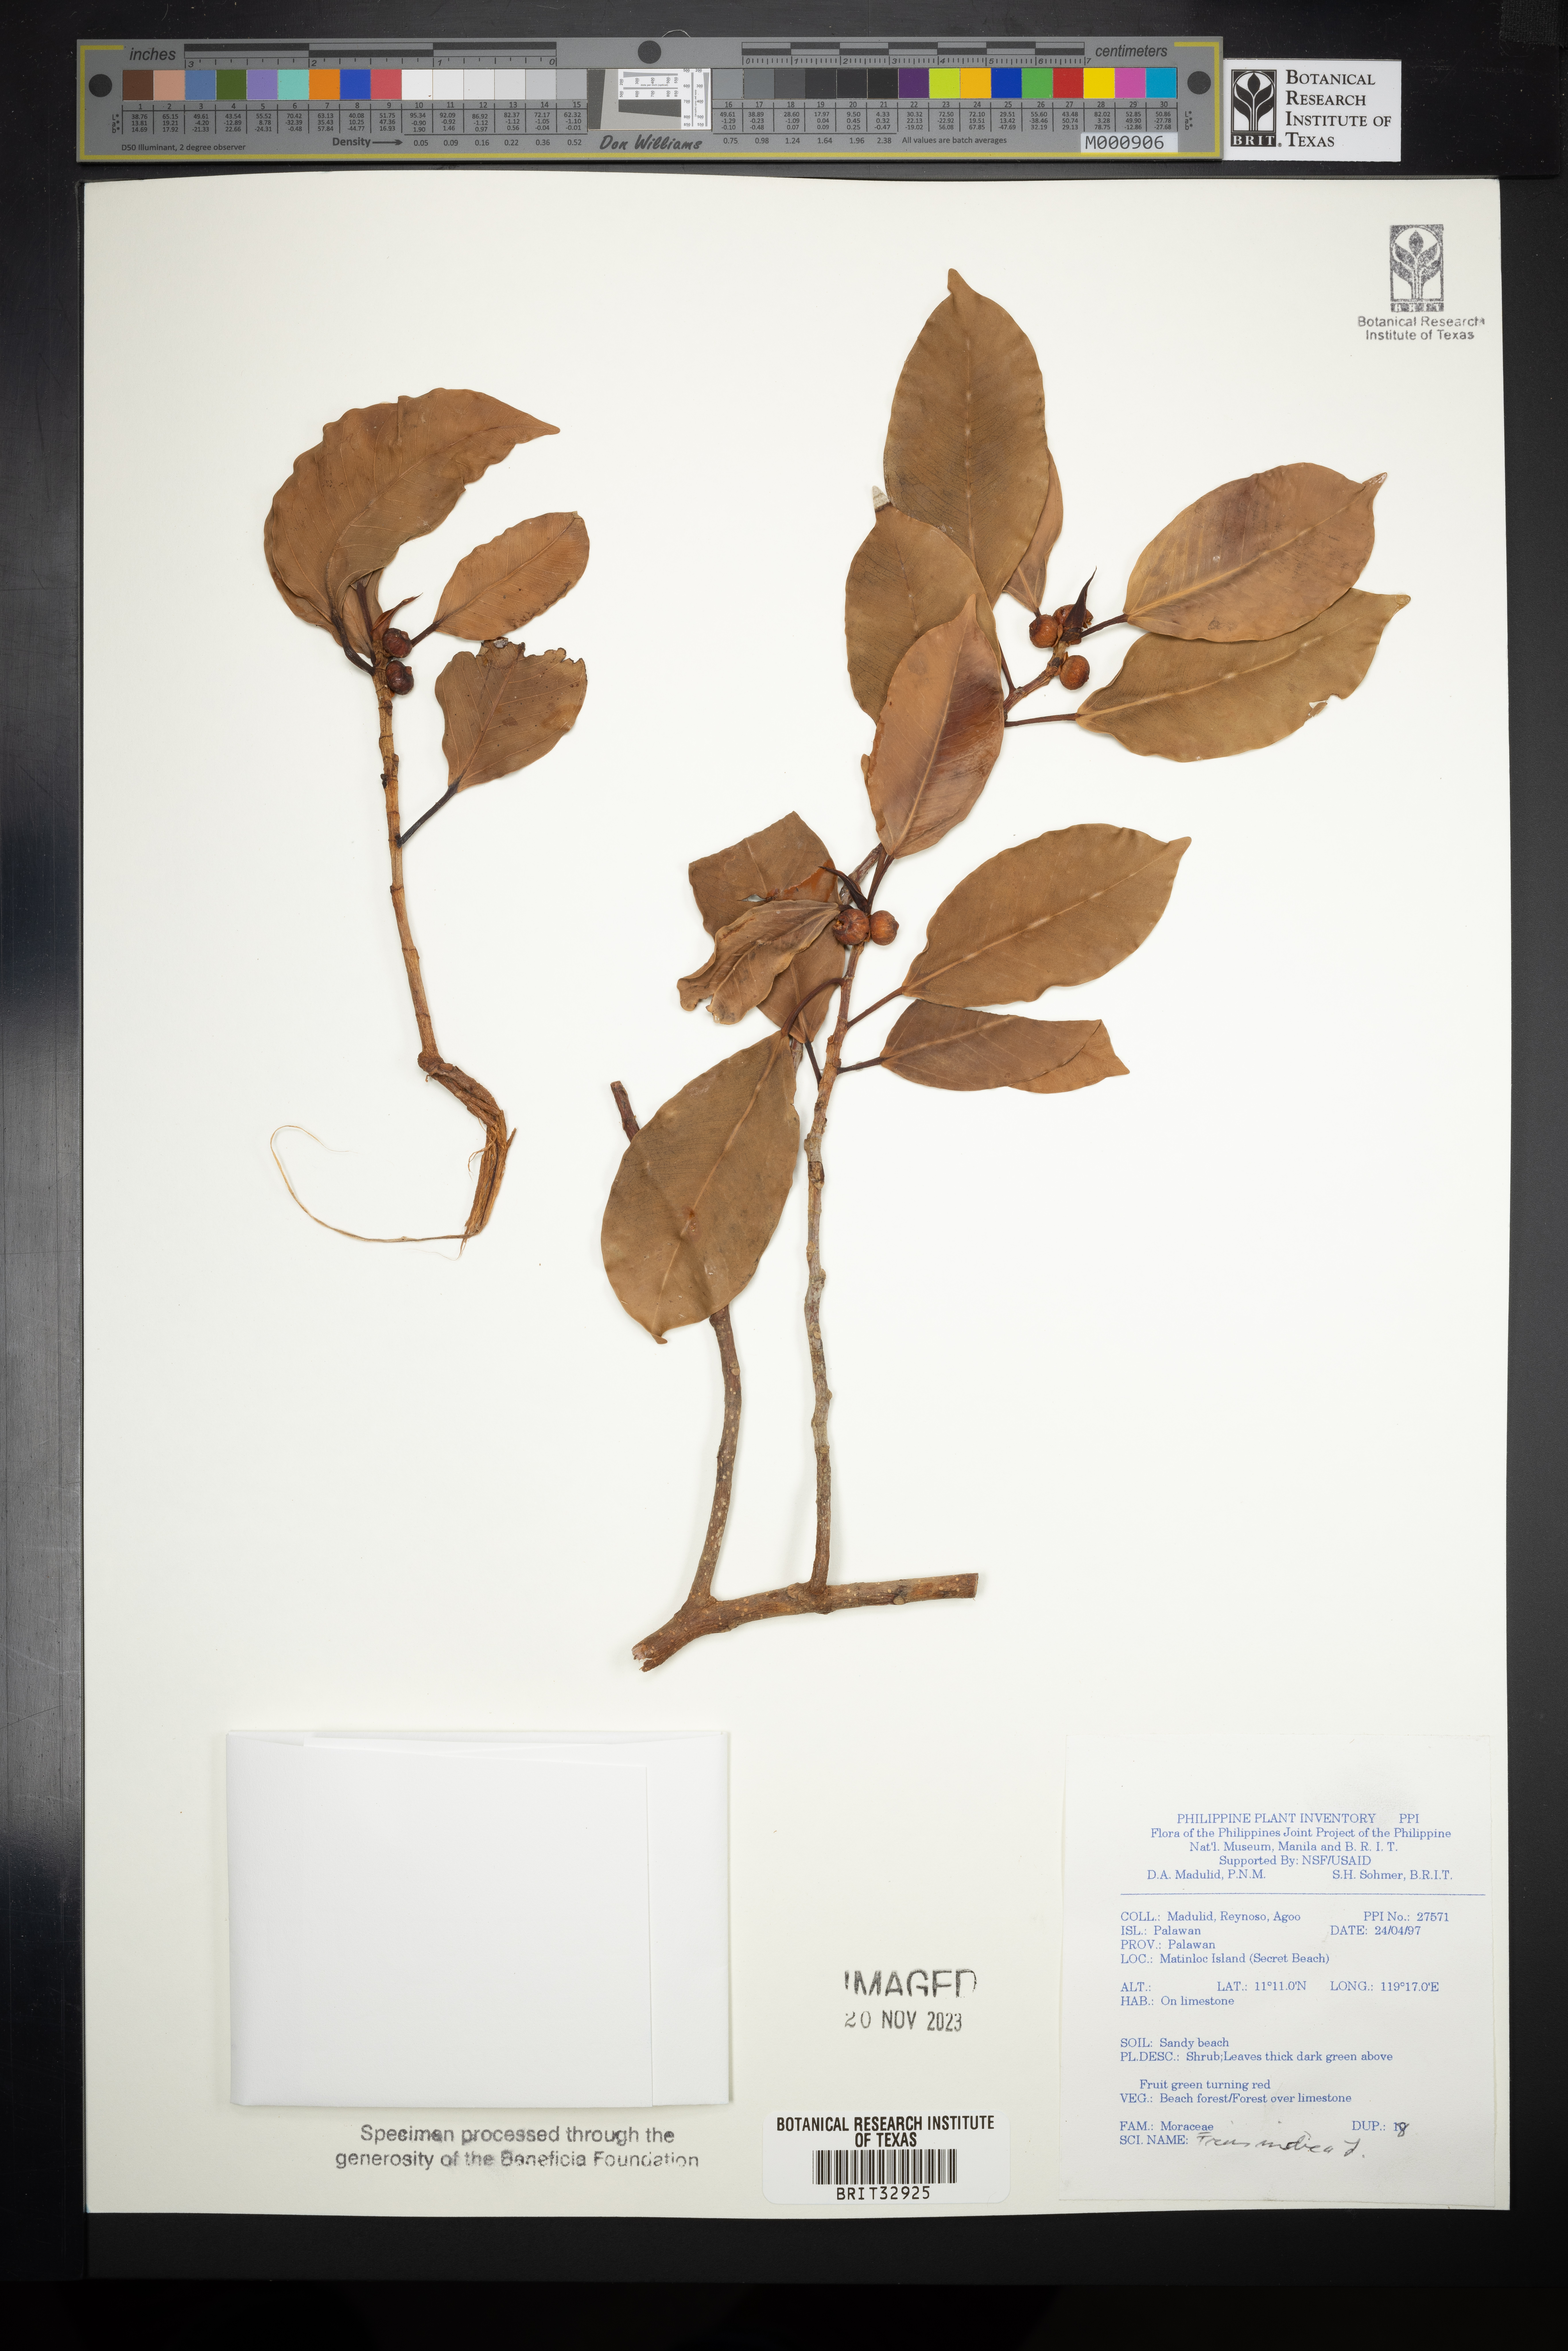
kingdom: Plantae
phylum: Tracheophyta
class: Magnoliopsida
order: Rosales
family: Moraceae
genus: Ficus
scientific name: Ficus salicifolia
